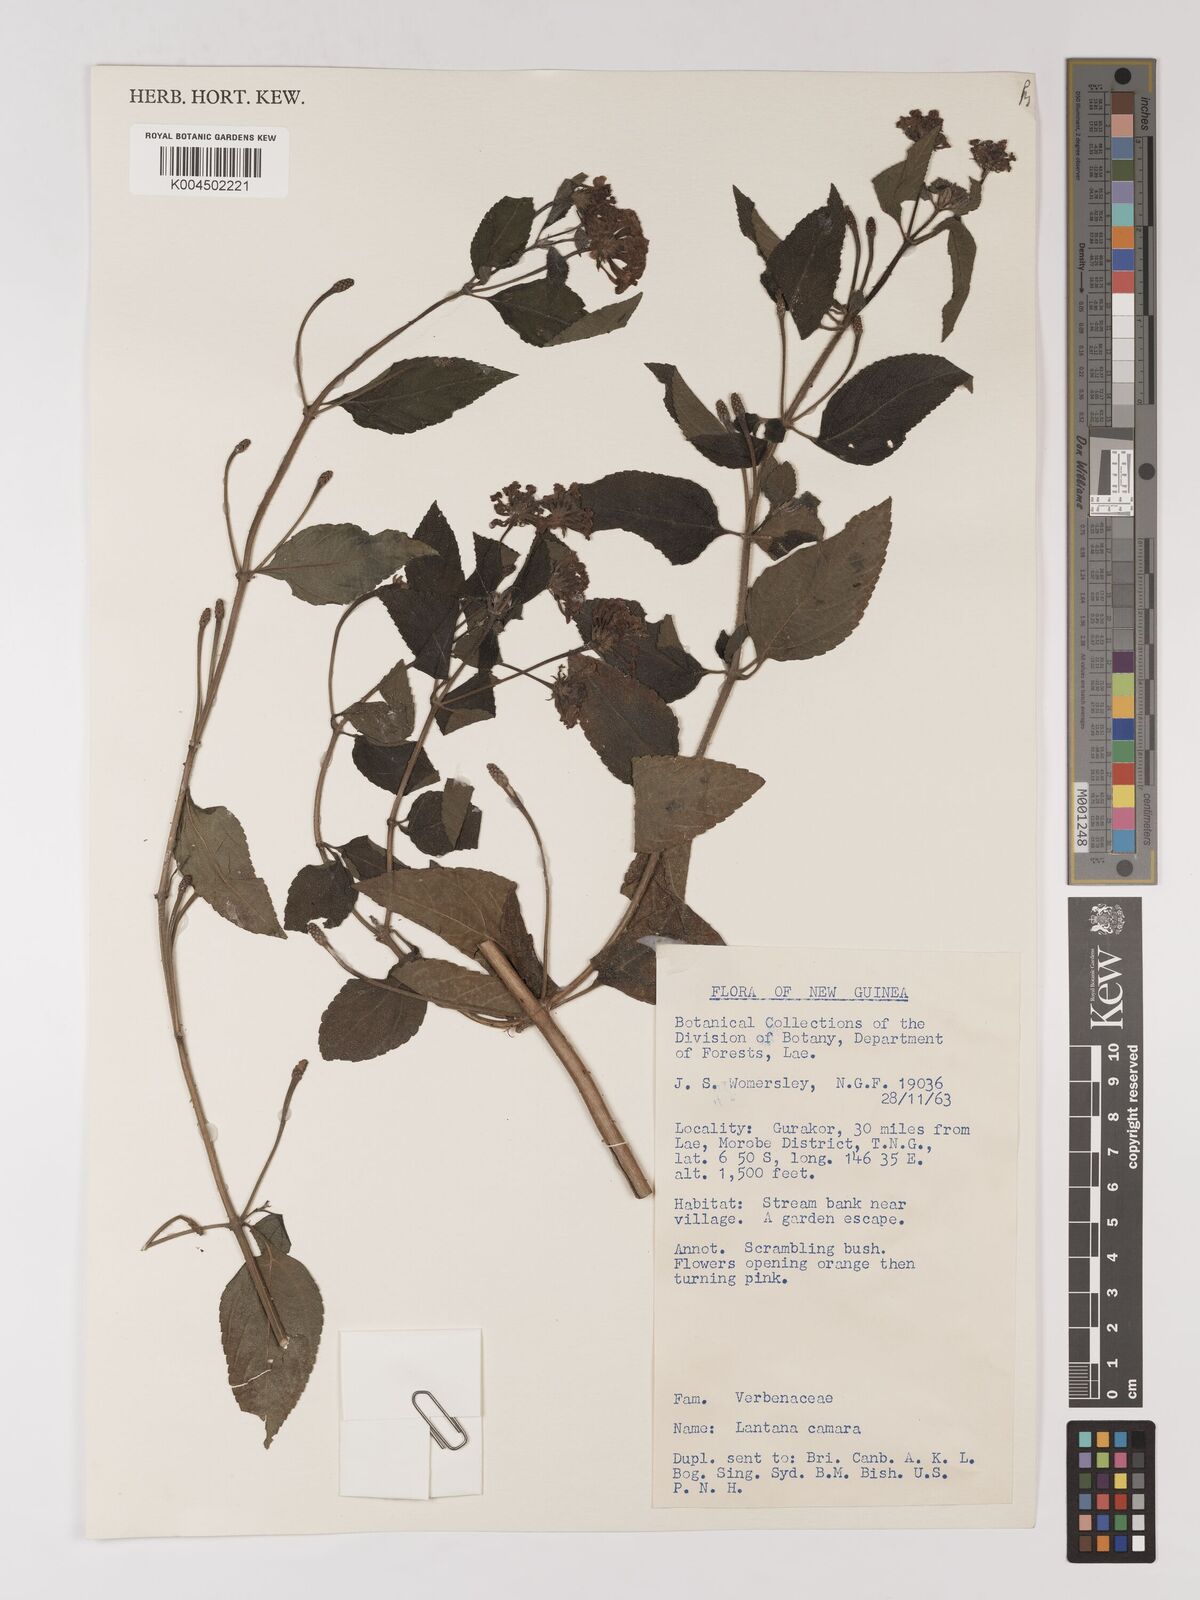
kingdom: Plantae
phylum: Tracheophyta
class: Magnoliopsida
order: Lamiales
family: Verbenaceae
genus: Lantana
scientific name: Lantana camara
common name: Lantana
